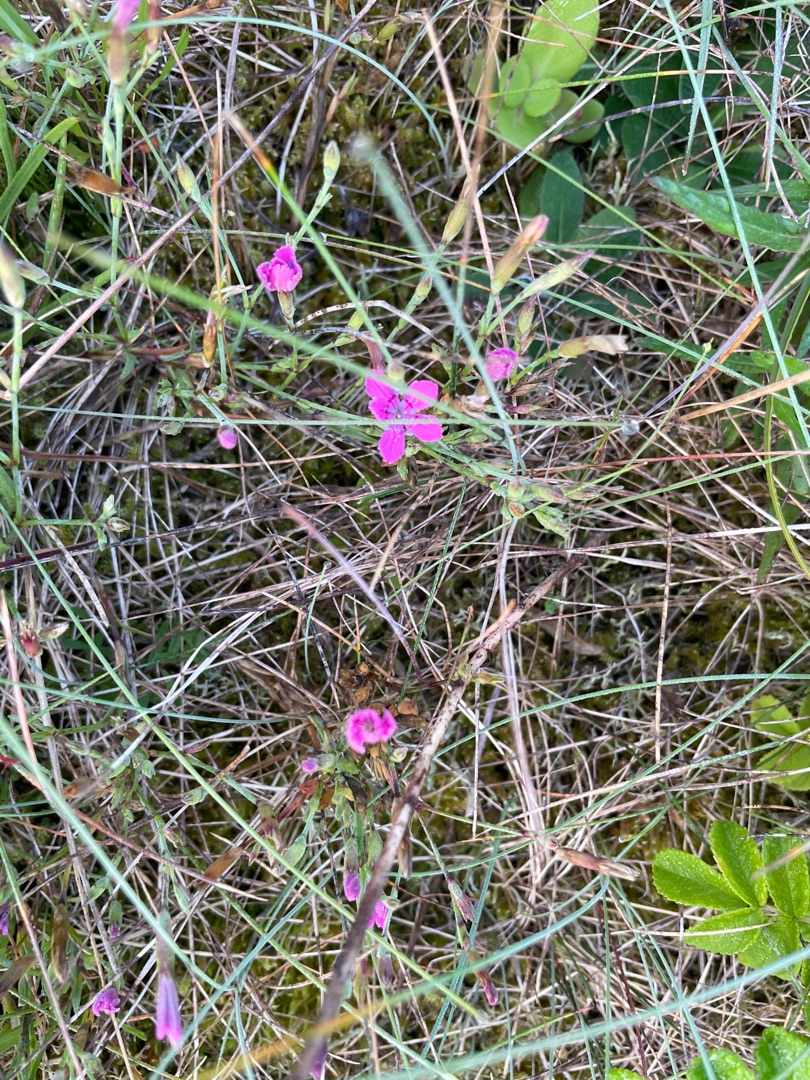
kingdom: Plantae
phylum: Tracheophyta
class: Magnoliopsida
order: Caryophyllales
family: Caryophyllaceae
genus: Dianthus
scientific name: Dianthus deltoides
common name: Bakke-nellike
